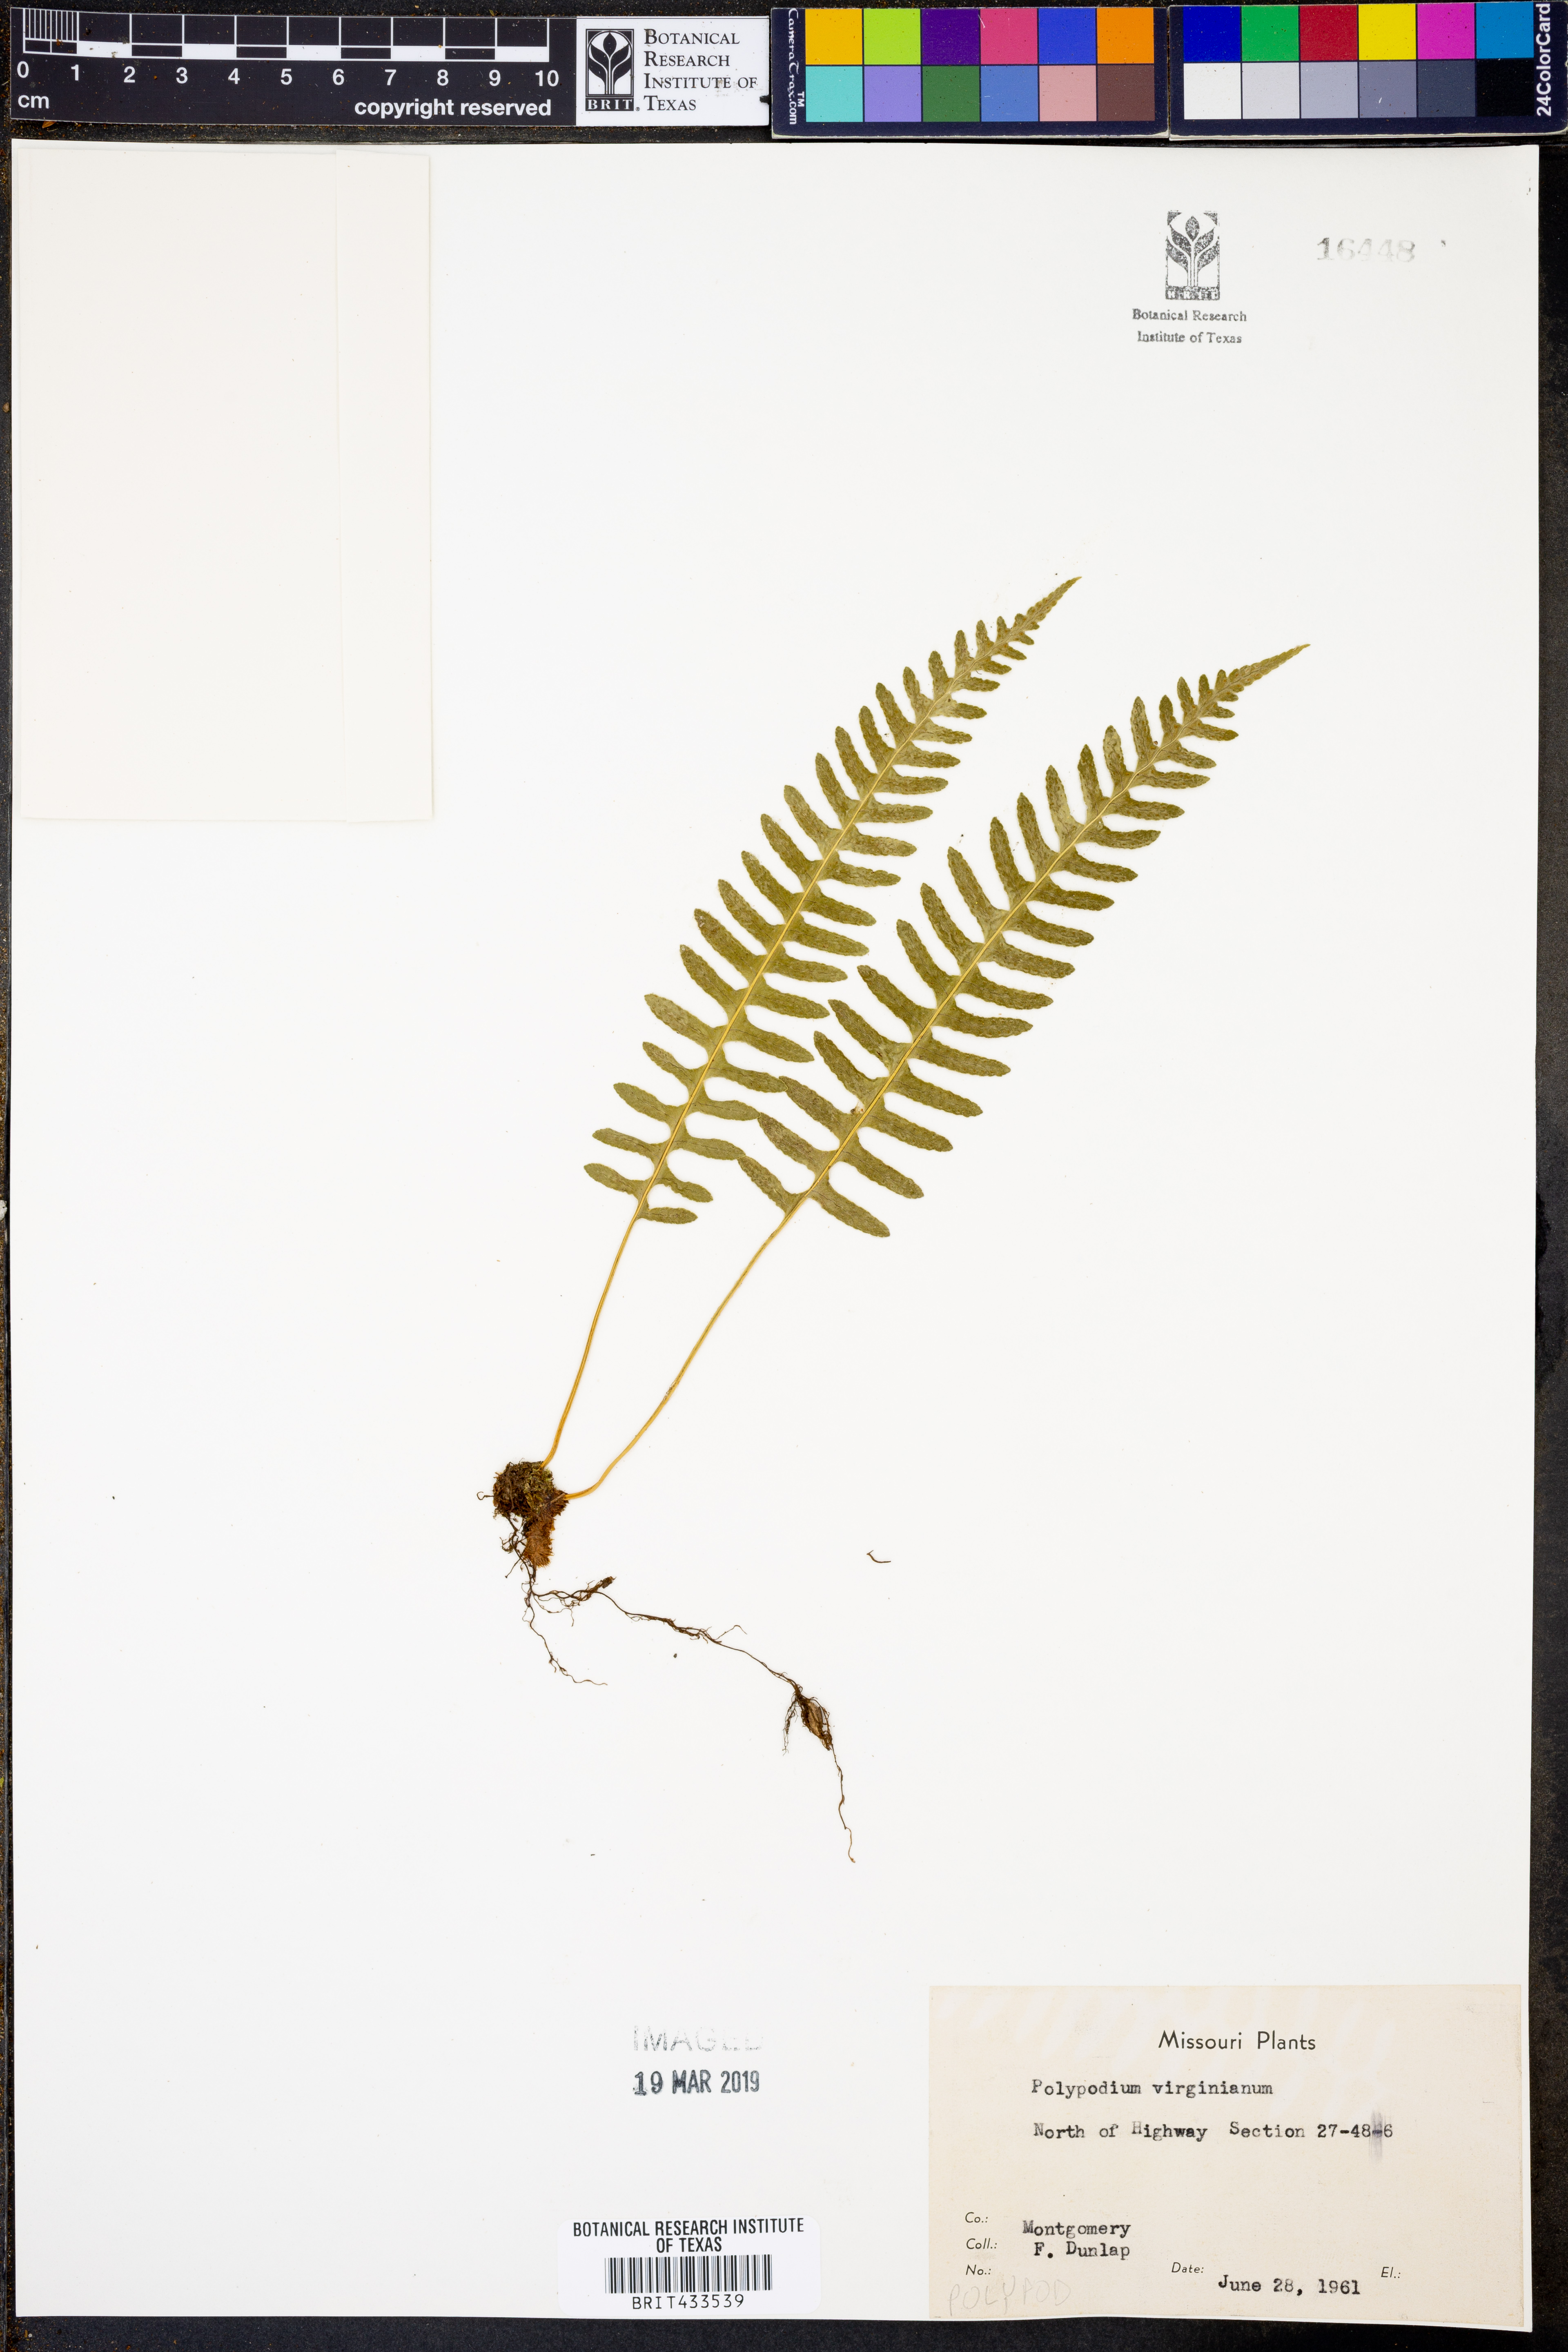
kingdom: Plantae
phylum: Tracheophyta
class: Polypodiopsida
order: Polypodiales
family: Polypodiaceae
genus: Polypodium
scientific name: Polypodium virginianum
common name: American wall fern
